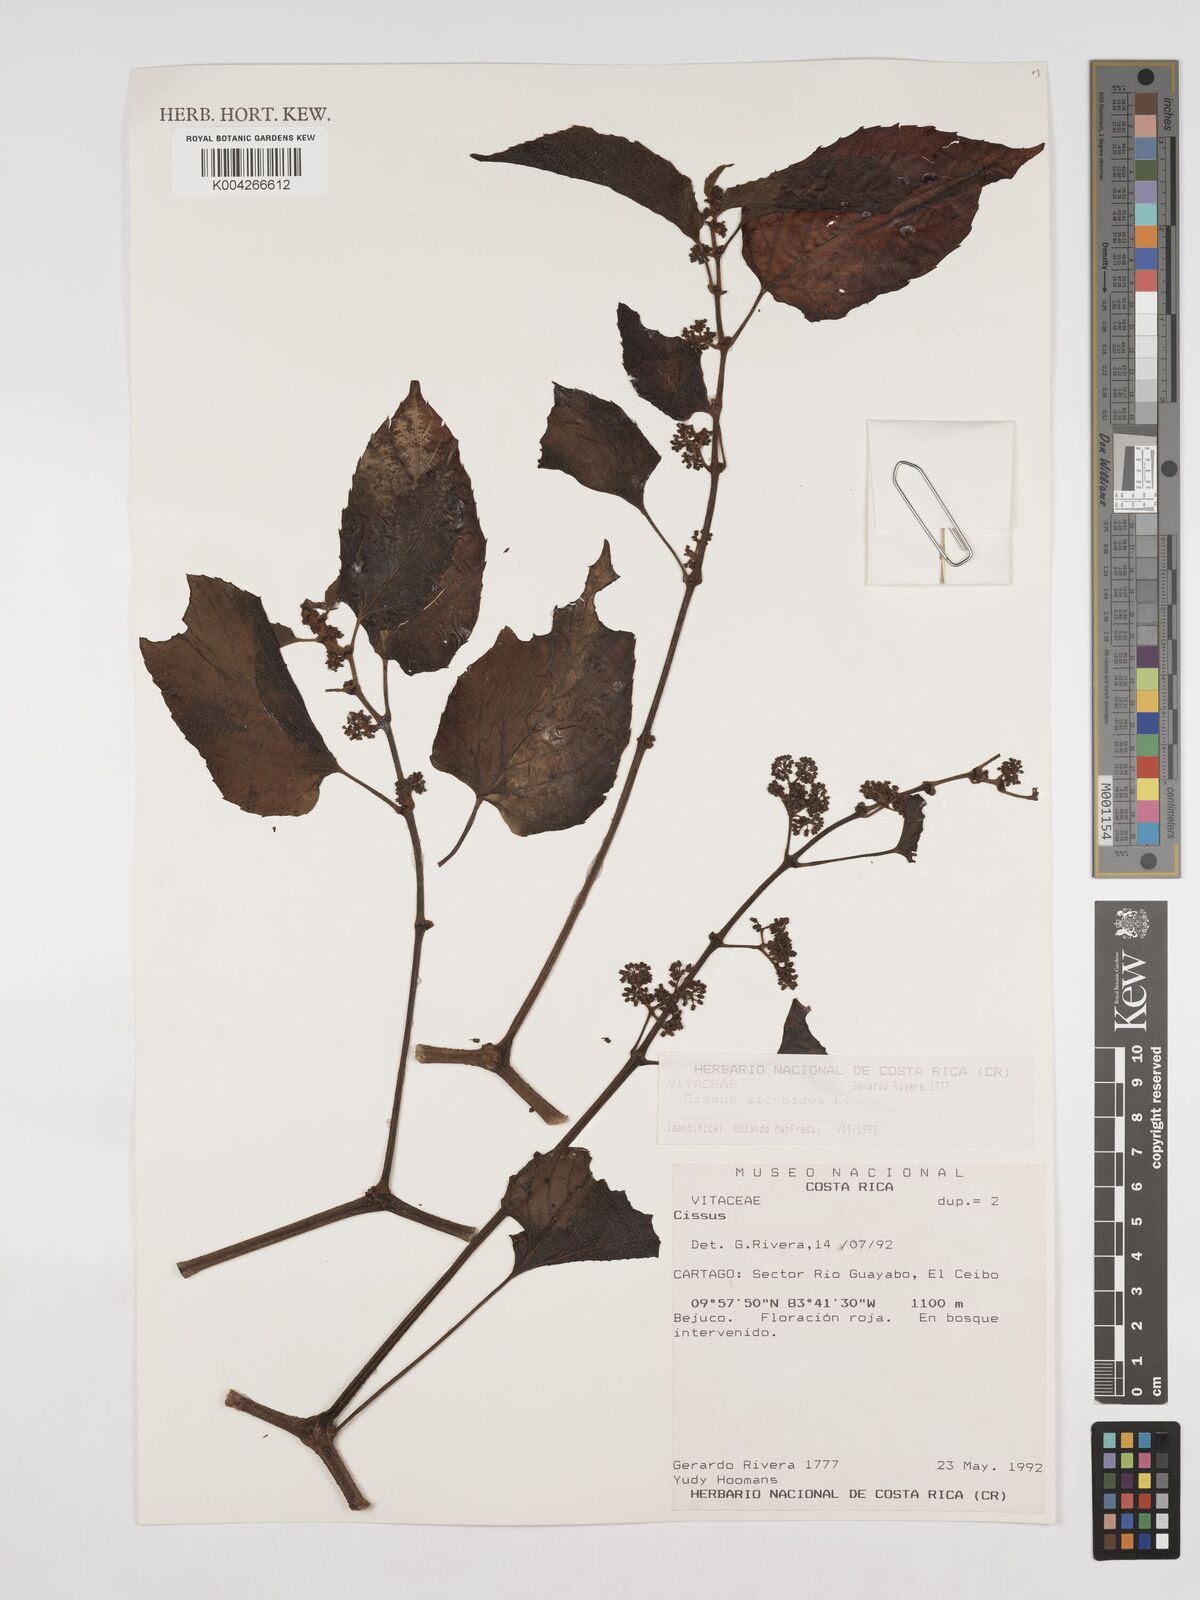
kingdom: Plantae
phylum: Tracheophyta
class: Magnoliopsida
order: Vitales
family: Vitaceae
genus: Cissus
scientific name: Cissus
